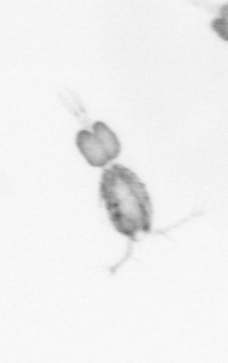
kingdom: Animalia
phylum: Arthropoda
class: Copepoda
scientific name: Copepoda
